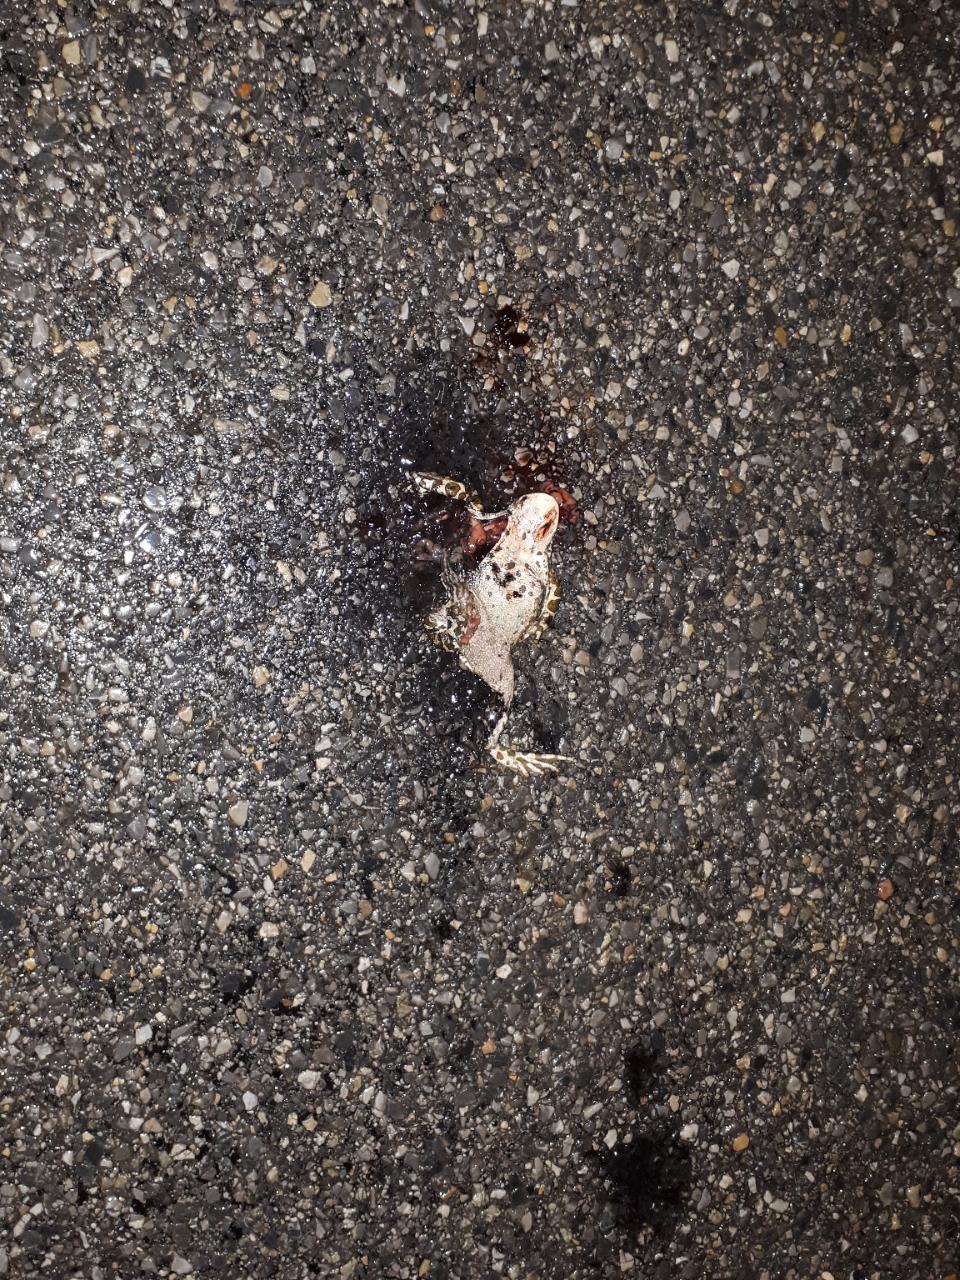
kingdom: Animalia
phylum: Chordata
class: Amphibia
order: Anura
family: Bufonidae
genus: Bufotes
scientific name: Bufotes viridis
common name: European green toad
